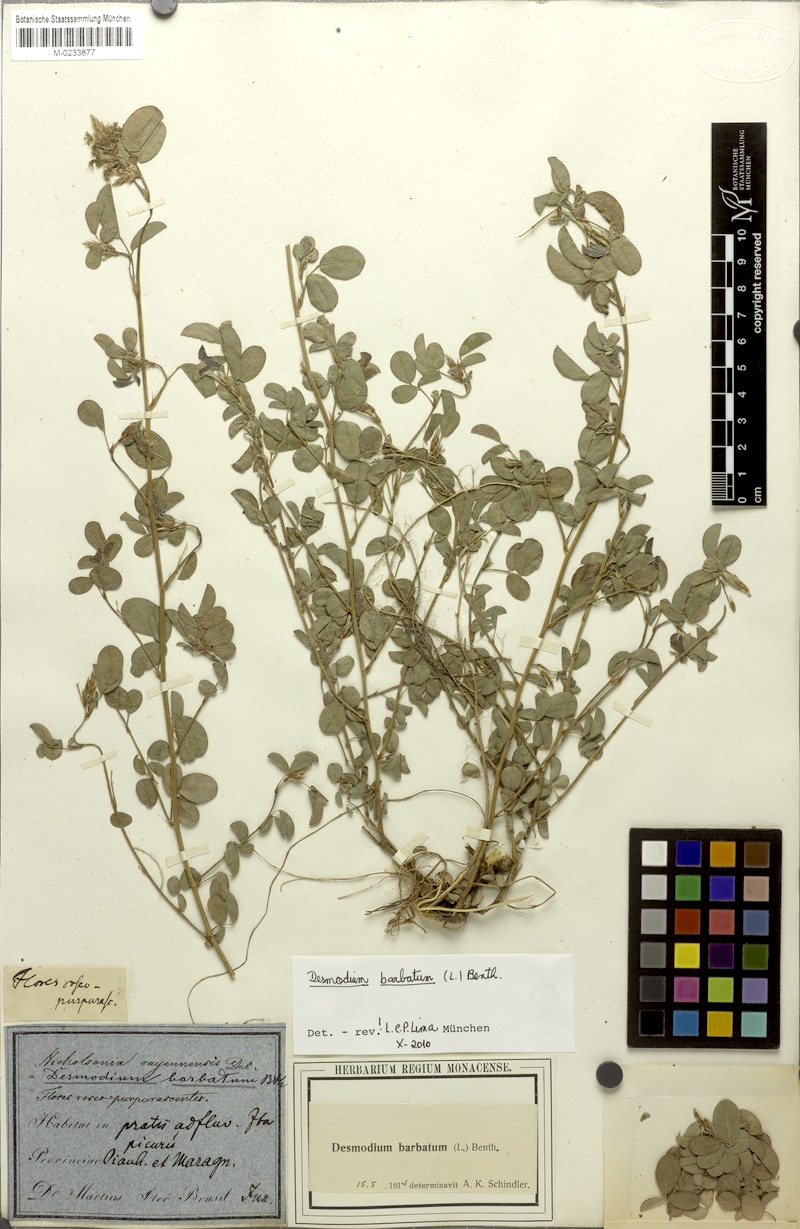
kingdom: Plantae
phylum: Tracheophyta
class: Magnoliopsida
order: Fabales
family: Fabaceae
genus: Grona
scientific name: Grona barbata
